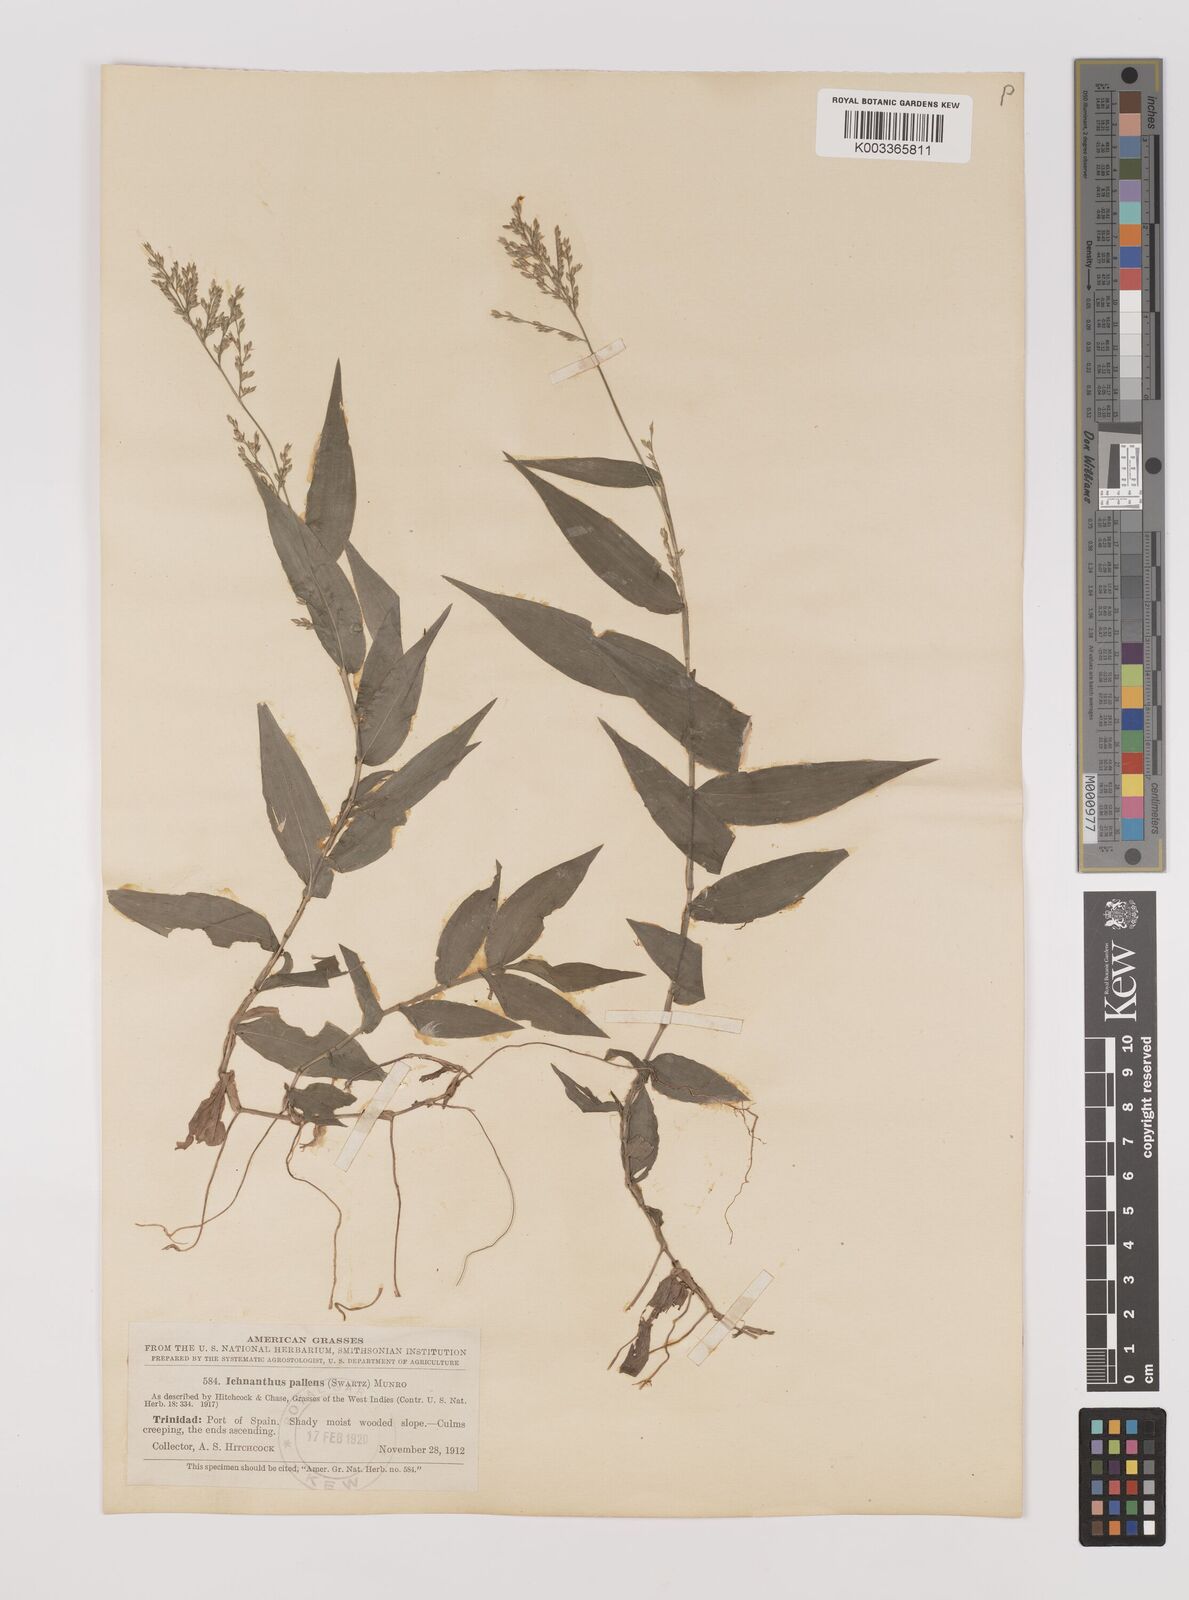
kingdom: Plantae
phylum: Tracheophyta
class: Liliopsida
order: Poales
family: Poaceae
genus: Ichnanthus
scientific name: Ichnanthus pallens
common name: Water grass
